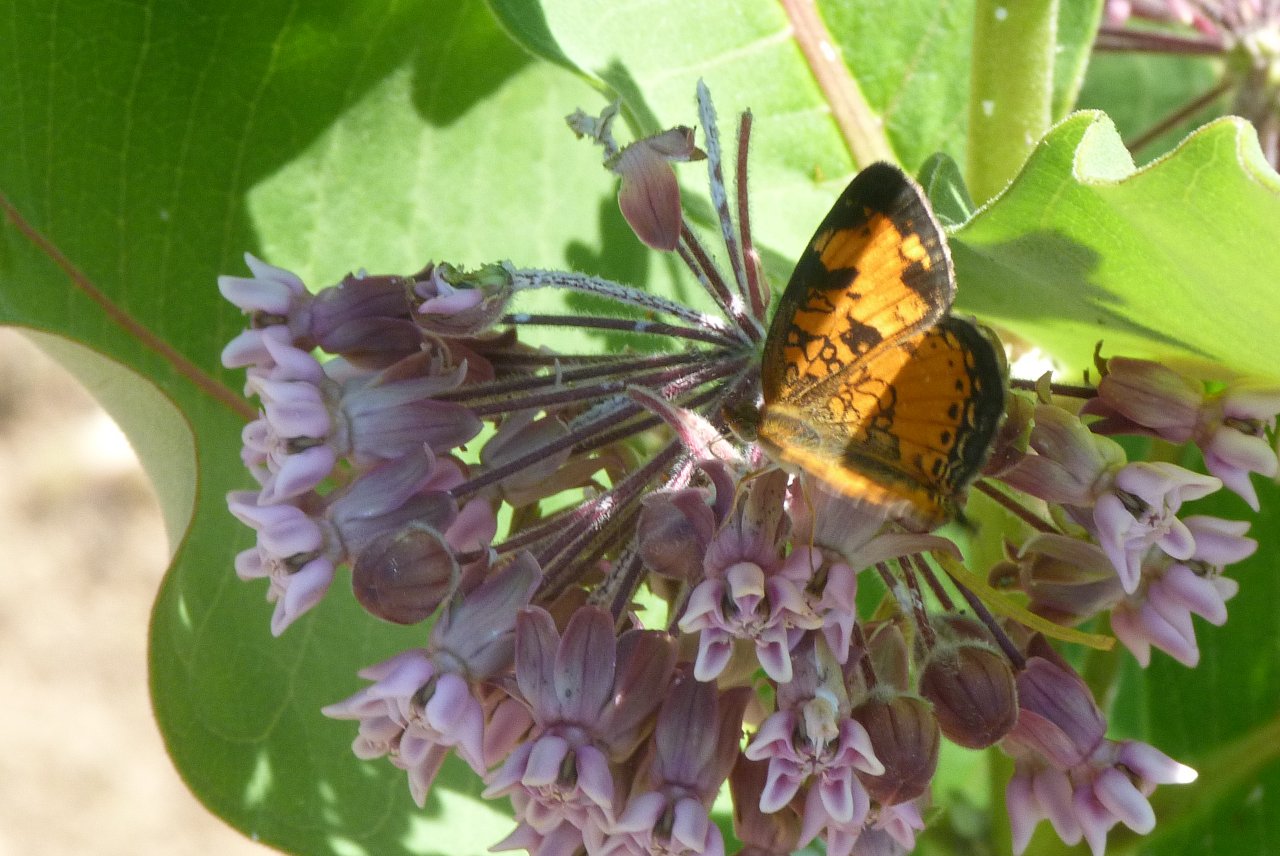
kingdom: Animalia
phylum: Arthropoda
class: Insecta
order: Lepidoptera
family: Nymphalidae
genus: Phyciodes
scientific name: Phyciodes
